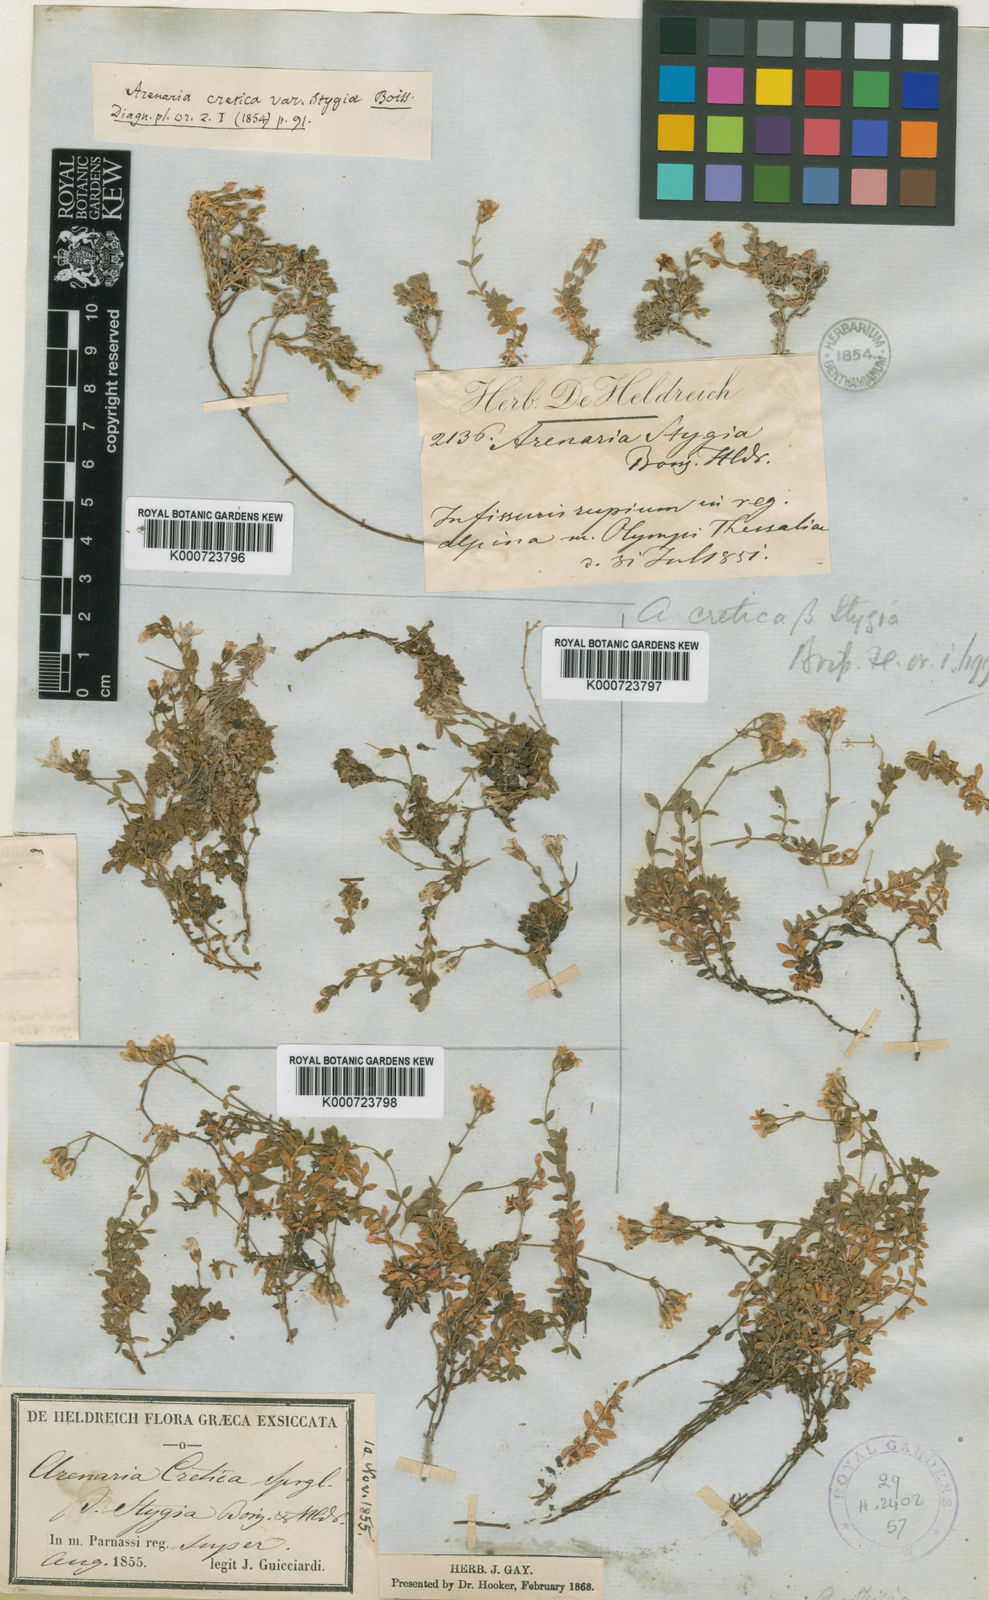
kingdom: Plantae
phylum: Tracheophyta
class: Magnoliopsida
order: Caryophyllales
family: Caryophyllaceae
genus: Arenaria
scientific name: Arenaria cretica
